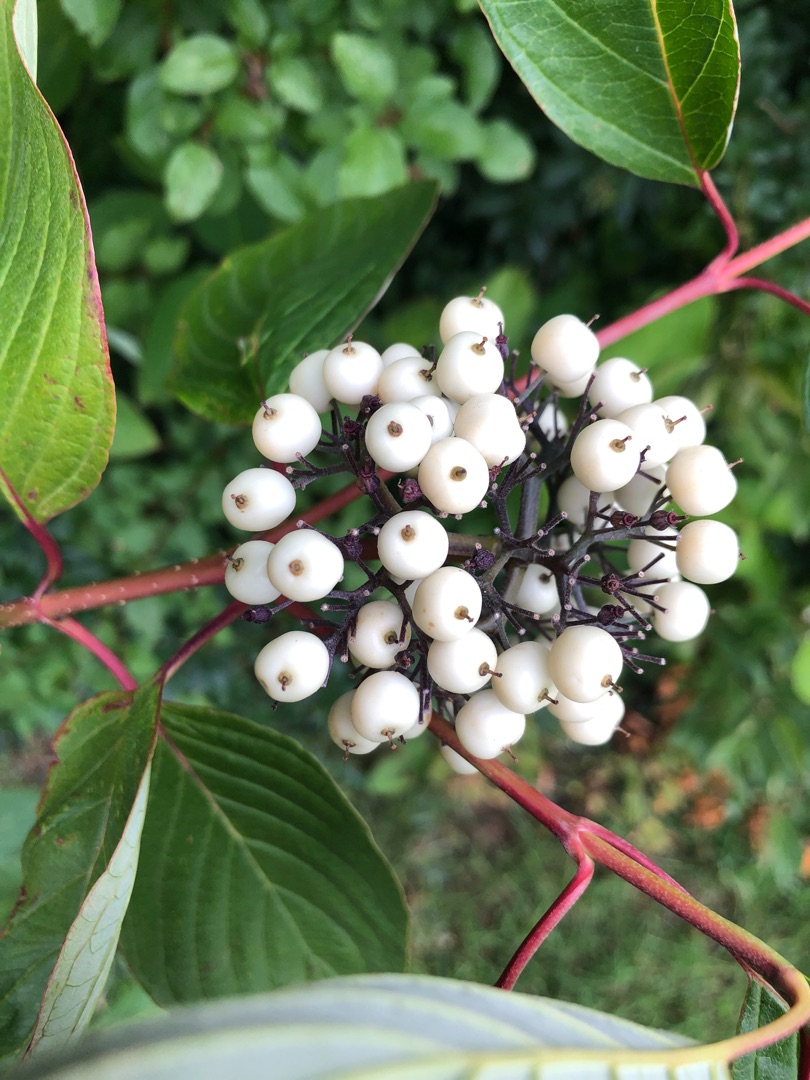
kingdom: Plantae
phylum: Tracheophyta
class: Magnoliopsida
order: Cornales
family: Cornaceae
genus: Cornus
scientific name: Cornus sericea
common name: Krybende kornel
